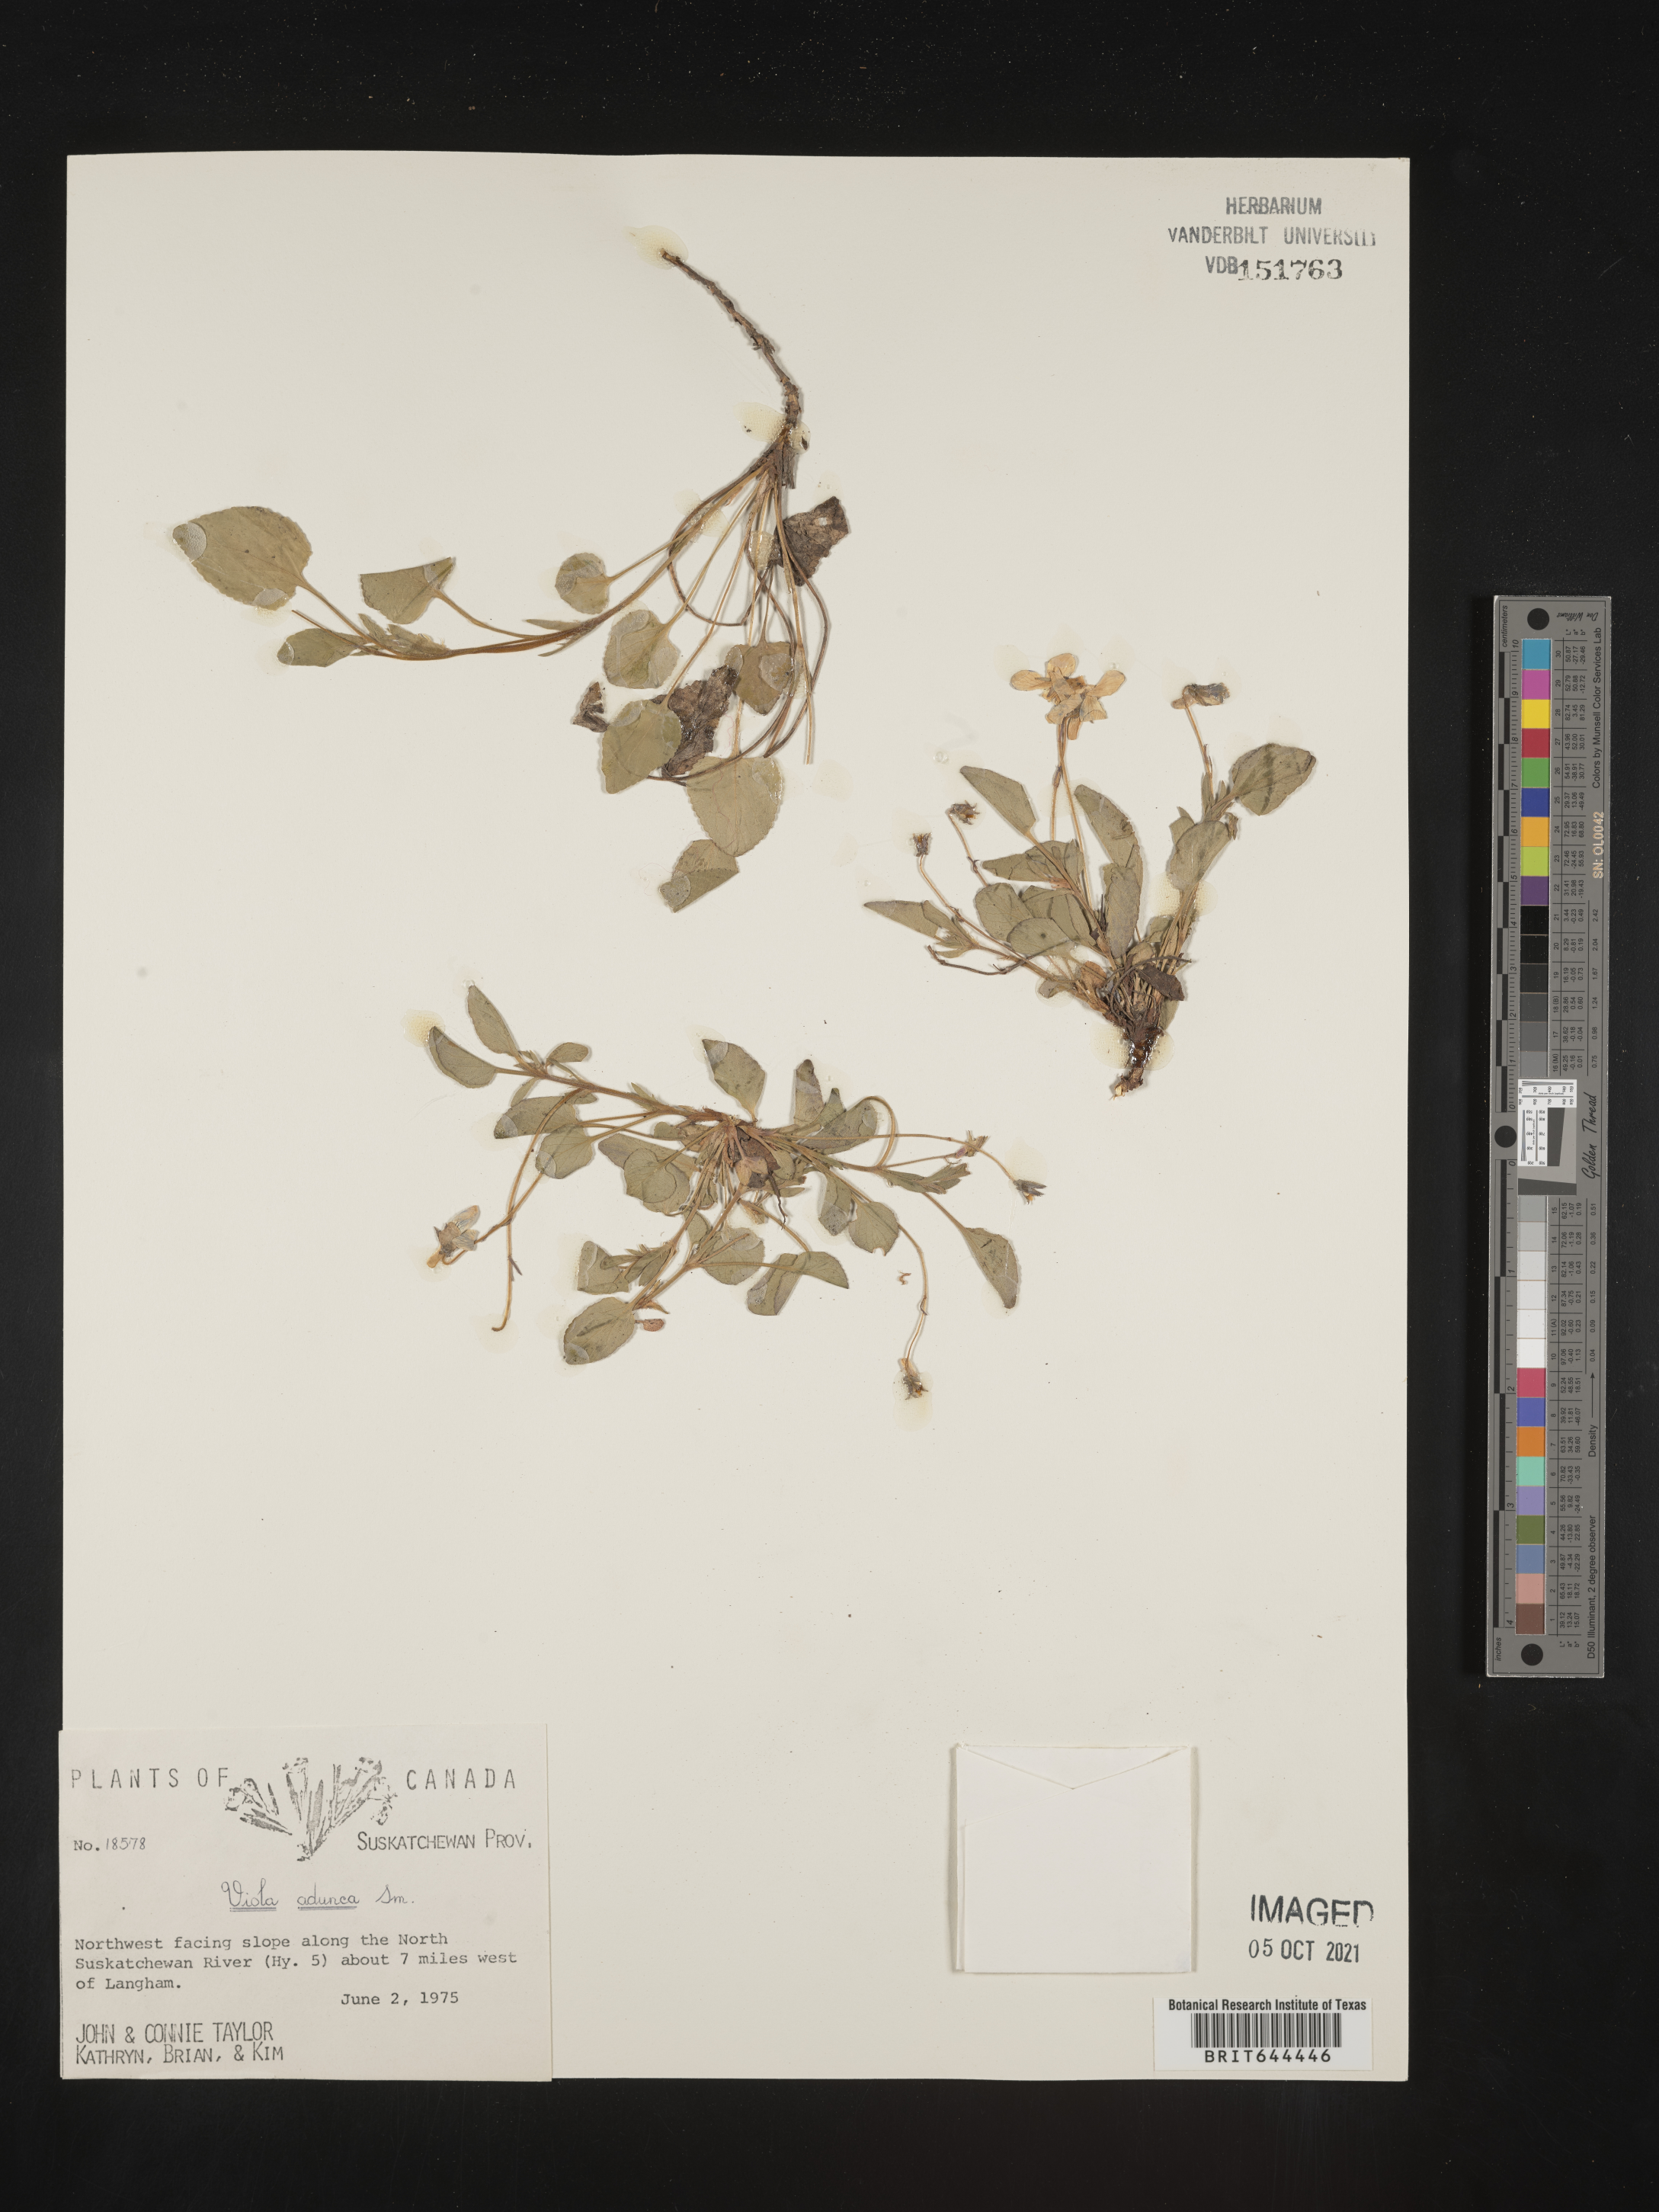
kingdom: Plantae
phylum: Tracheophyta
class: Magnoliopsida
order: Malpighiales
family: Violaceae
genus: Viola
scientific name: Viola
